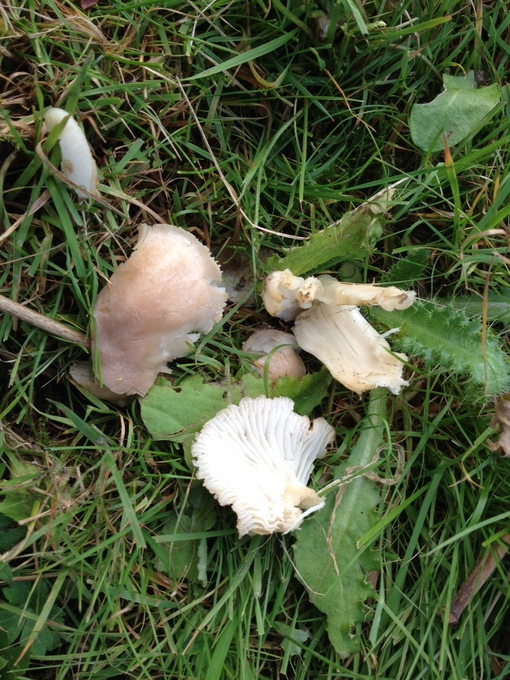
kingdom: Fungi
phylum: Basidiomycota
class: Agaricomycetes
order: Agaricales
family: Hygrophoraceae
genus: Cuphophyllus
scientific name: Cuphophyllus
